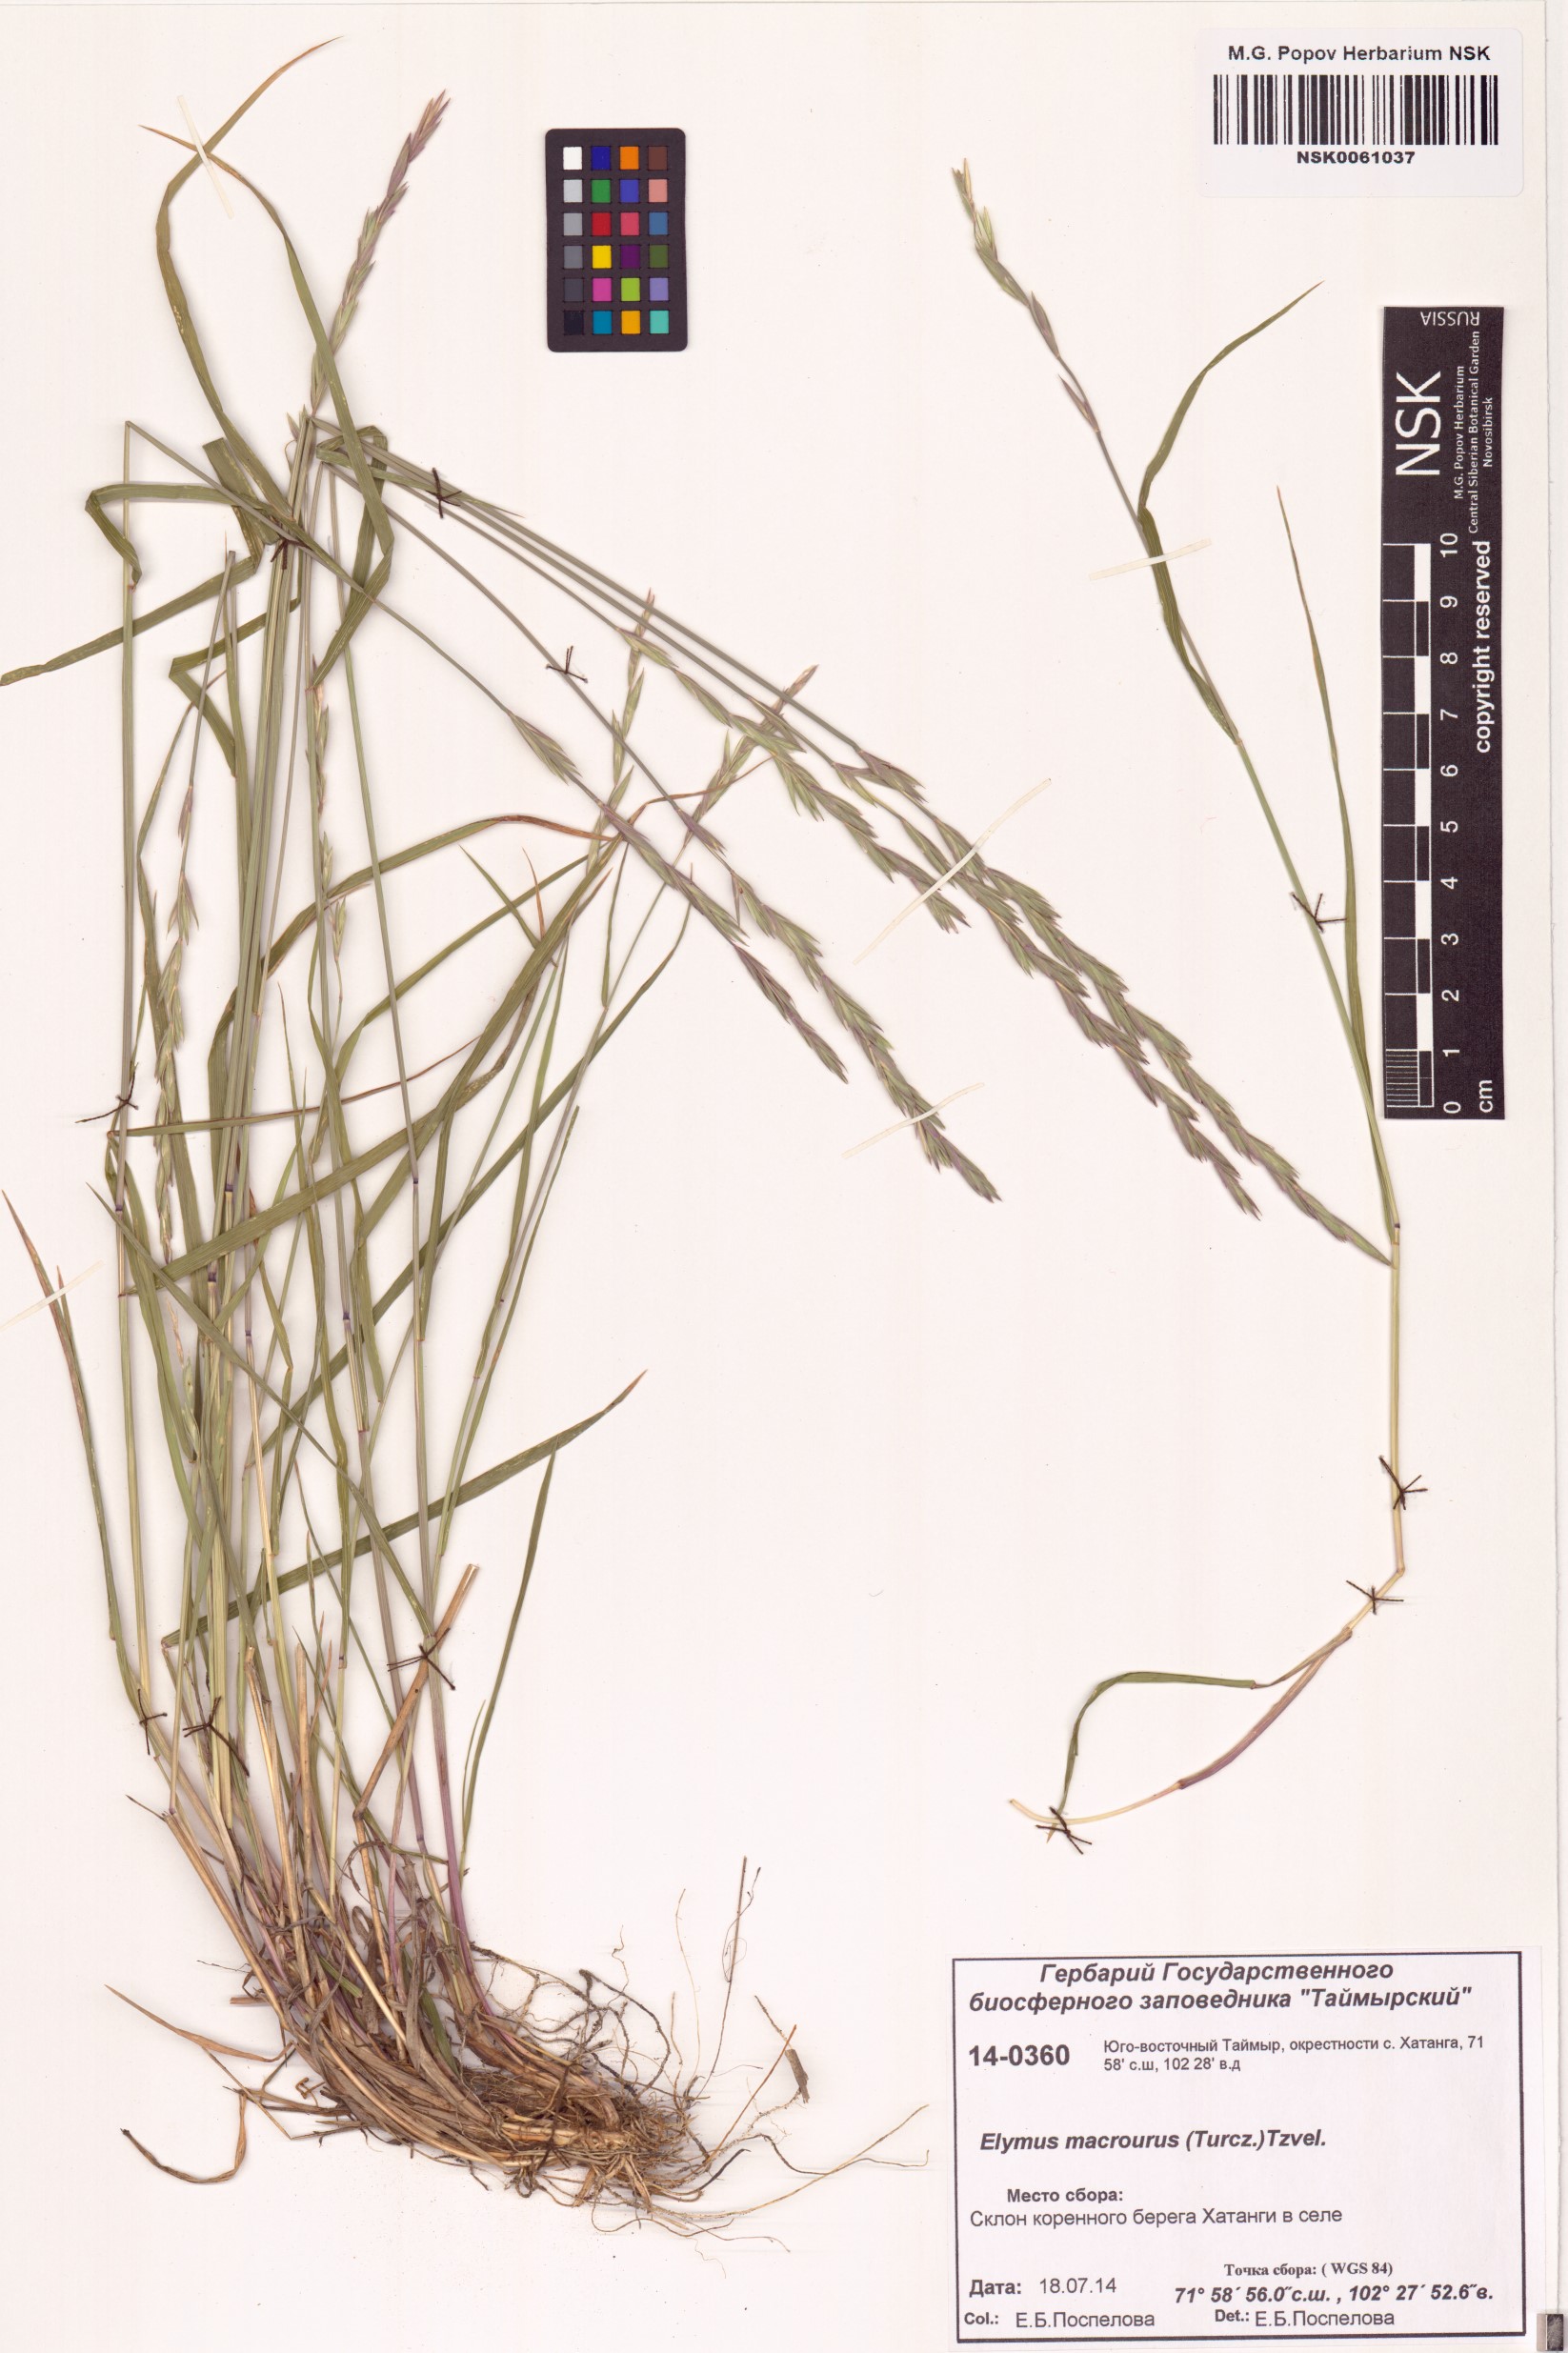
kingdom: Plantae
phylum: Tracheophyta
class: Liliopsida
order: Poales
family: Poaceae
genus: Elymus
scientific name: Elymus macrourus
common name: Northern wheatgrass
